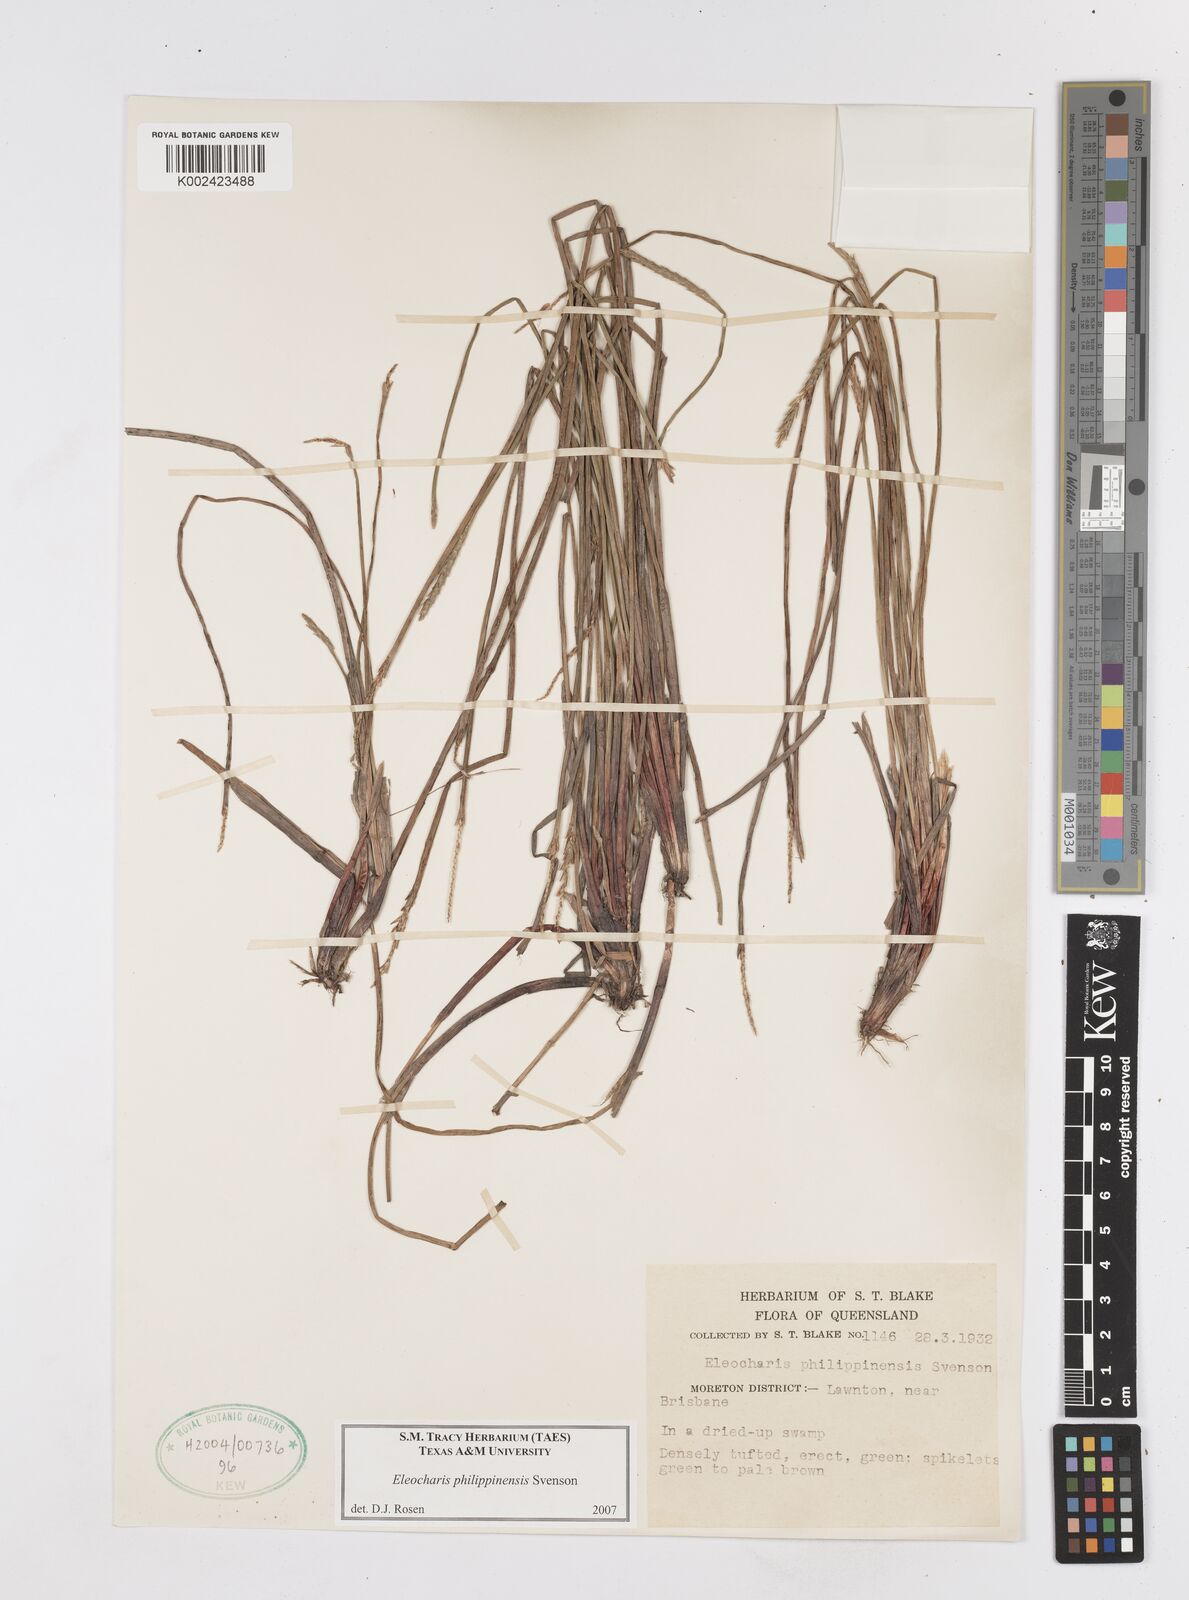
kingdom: Plantae
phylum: Tracheophyta
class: Liliopsida
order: Poales
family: Cyperaceae
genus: Eleocharis
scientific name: Eleocharis philippinensis
